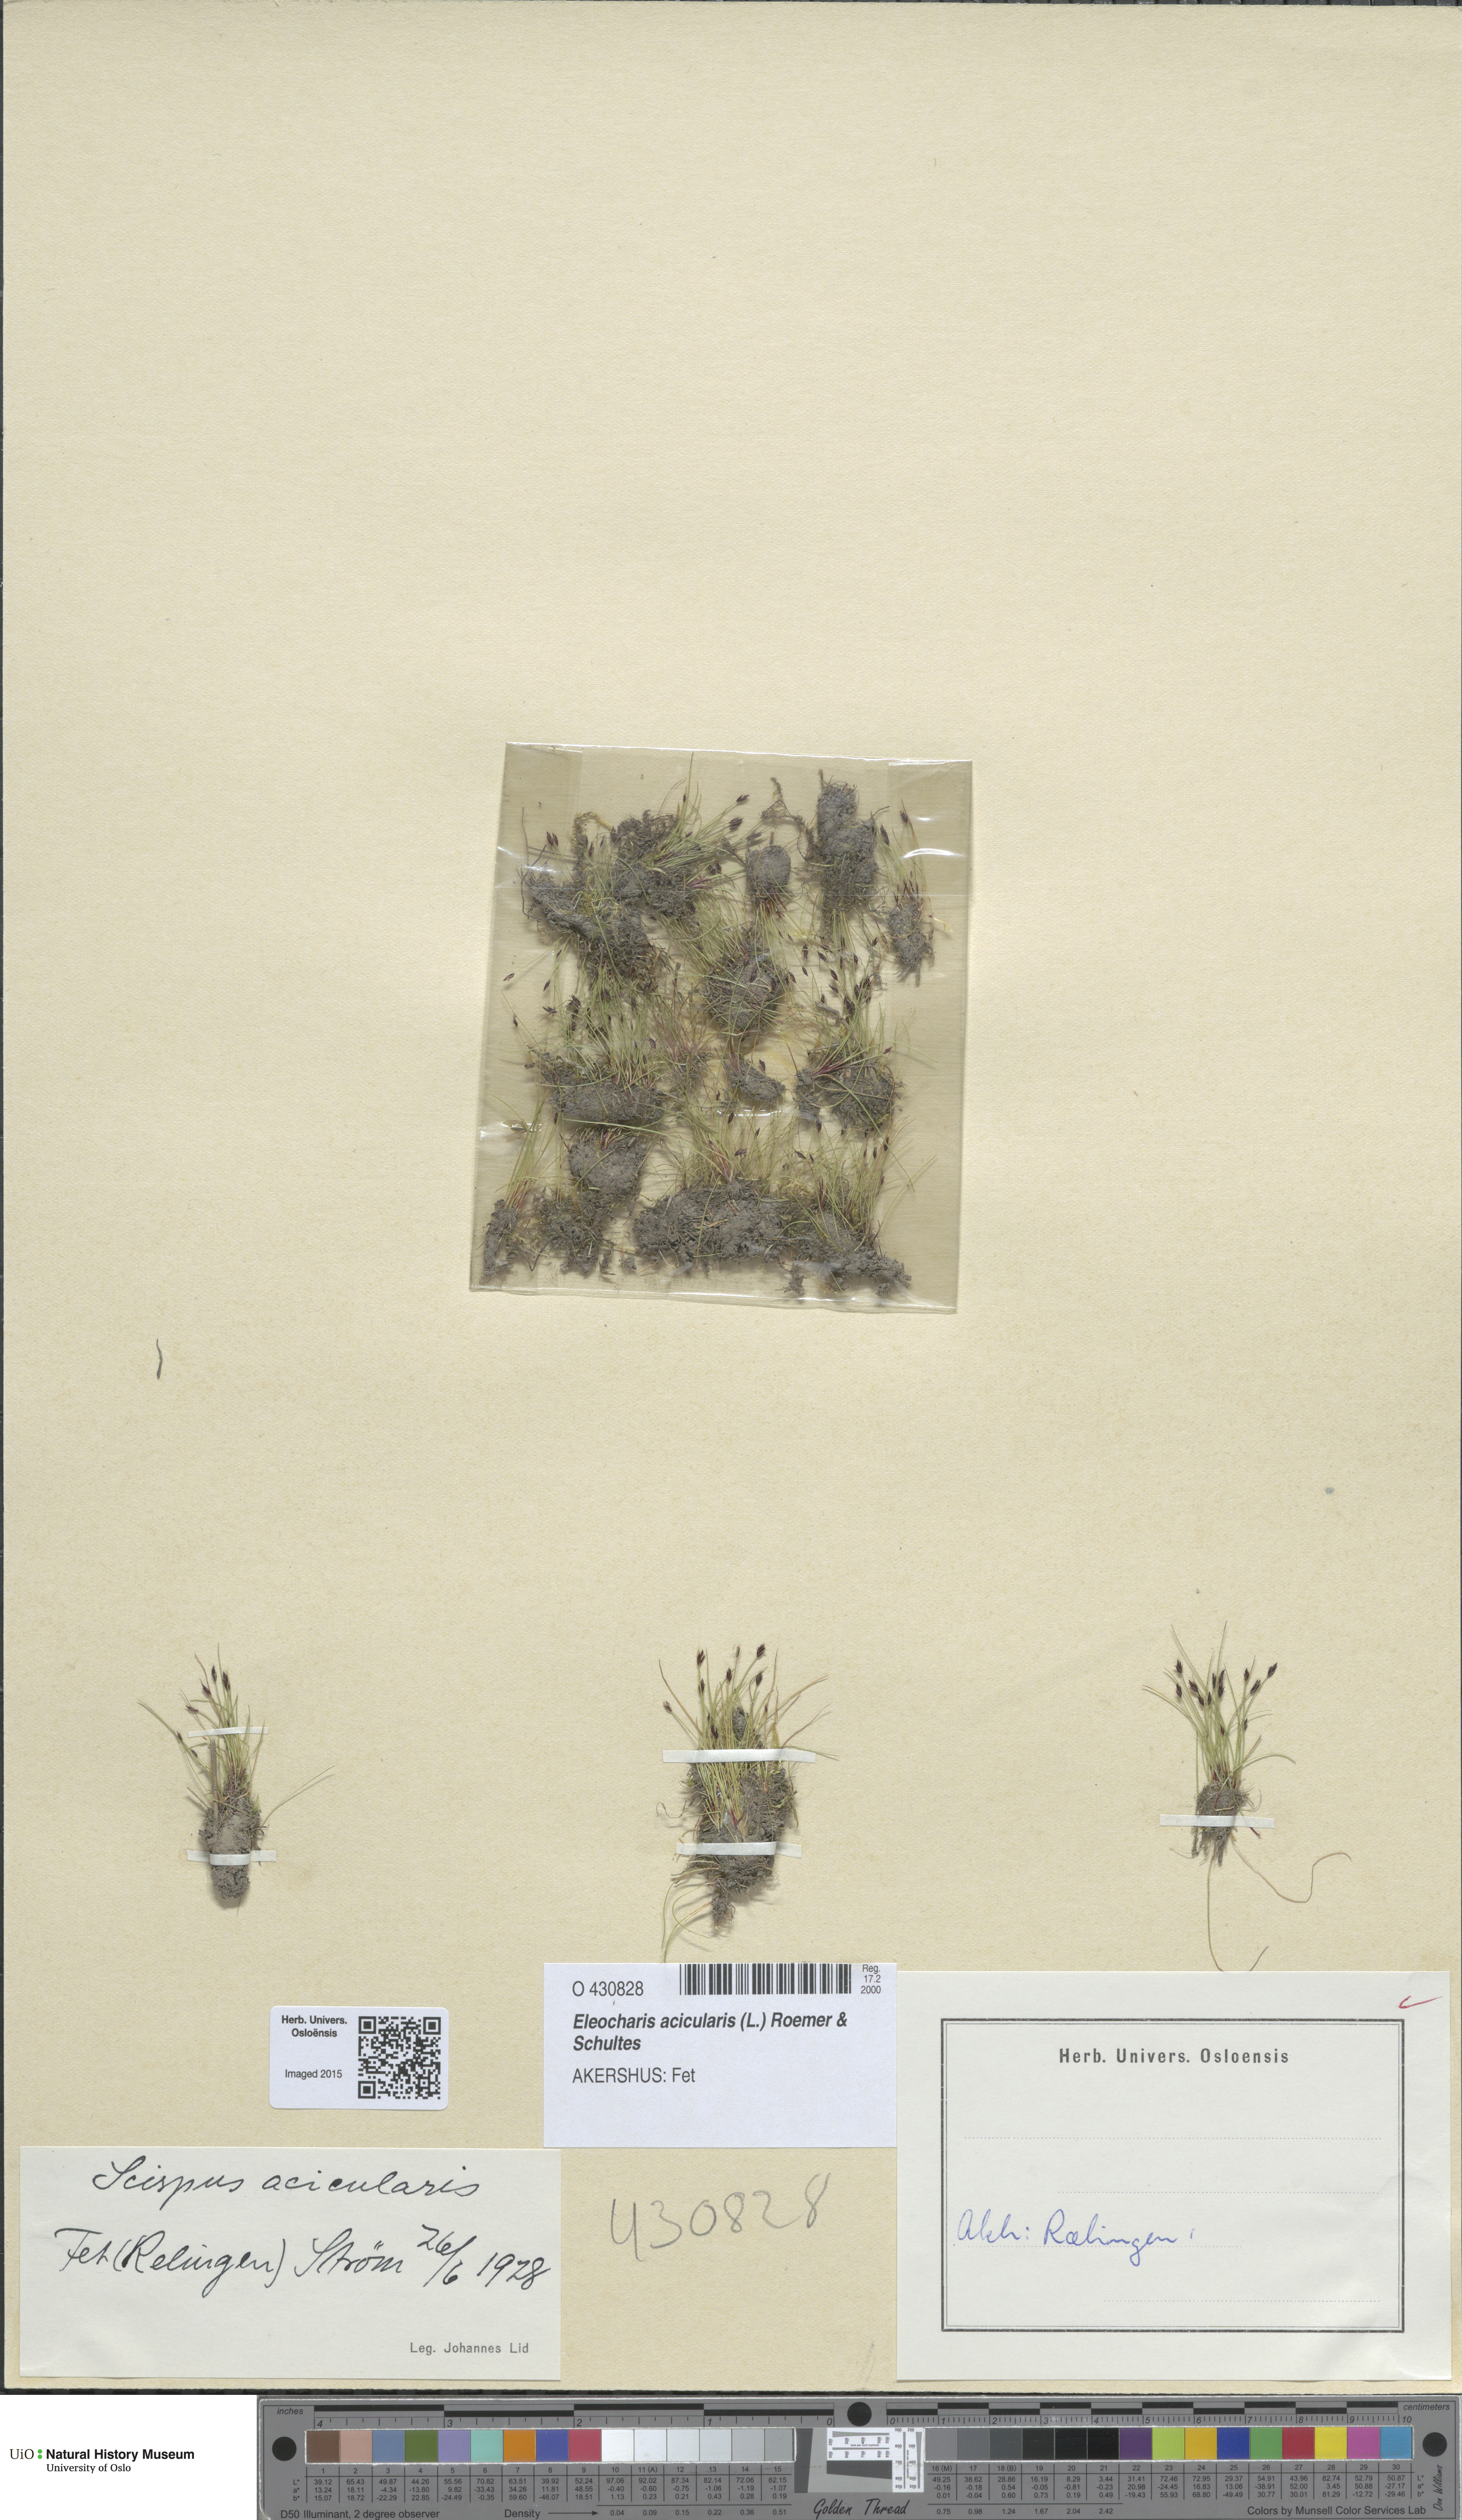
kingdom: Plantae
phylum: Tracheophyta
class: Liliopsida
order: Poales
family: Cyperaceae
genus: Eleocharis
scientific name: Eleocharis acicularis
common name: Needle spike-rush
